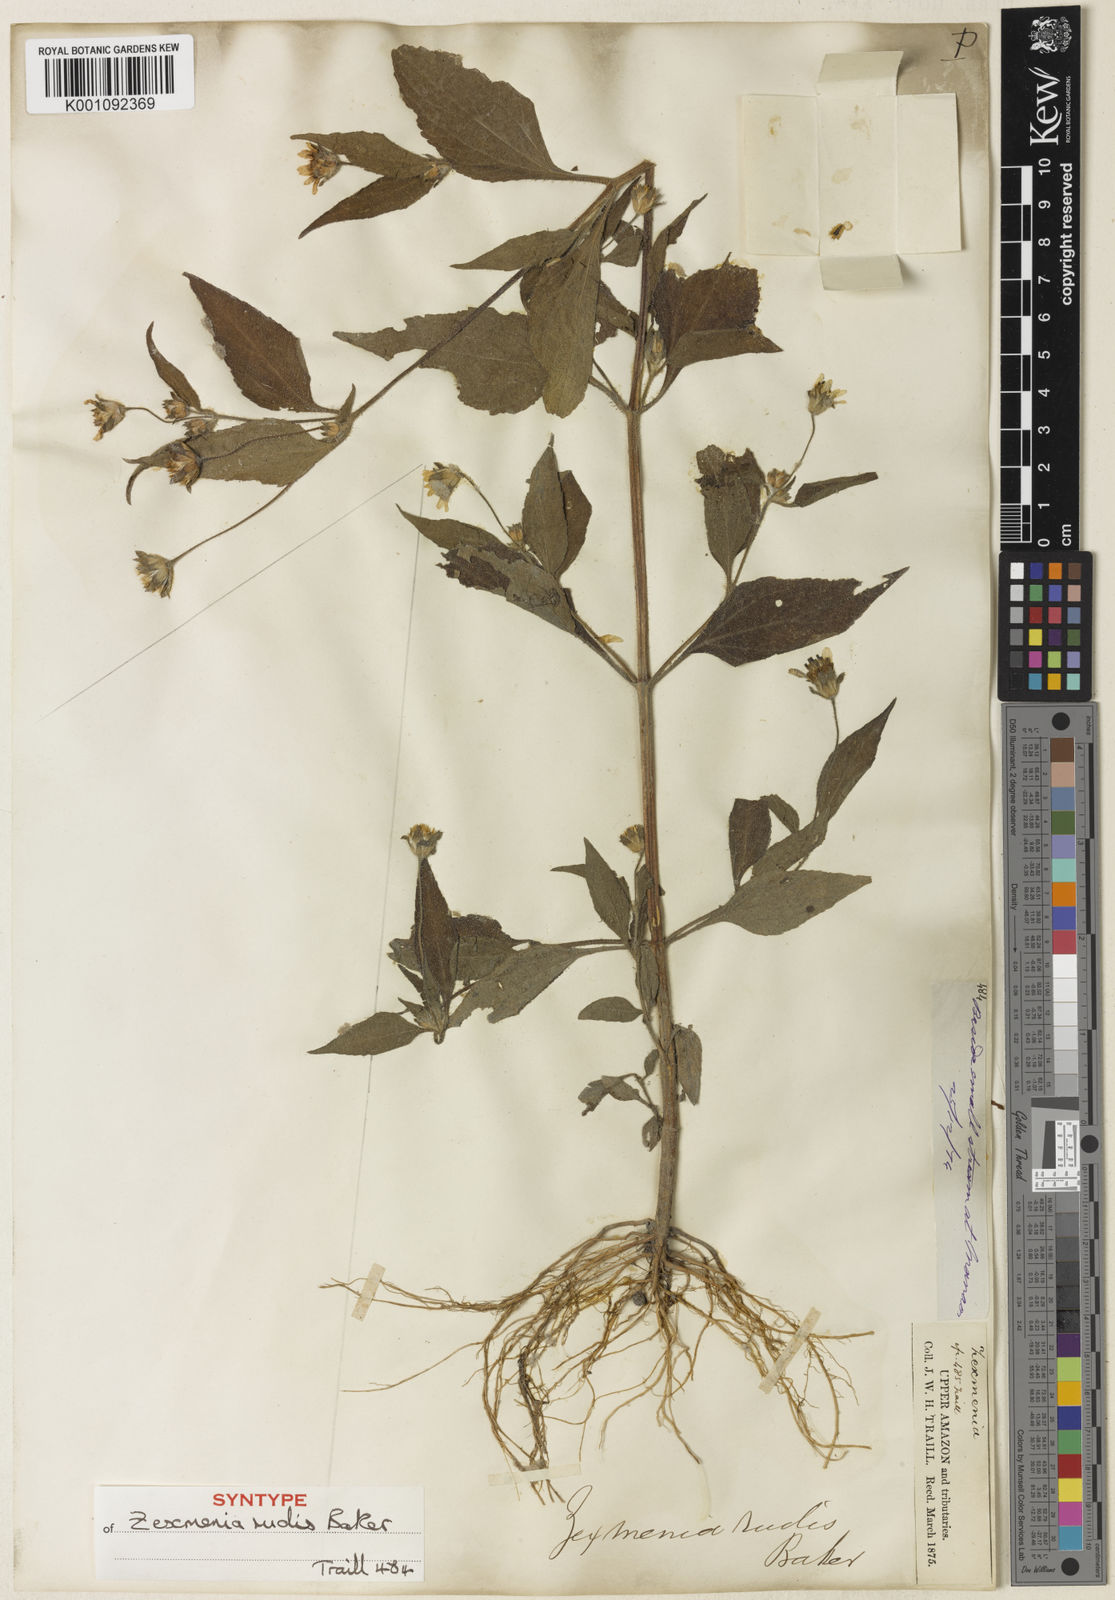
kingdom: Plantae
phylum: Tracheophyta
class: Magnoliopsida
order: Asterales
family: Asteraceae
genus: Wedelia
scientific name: Wedelia rudis
